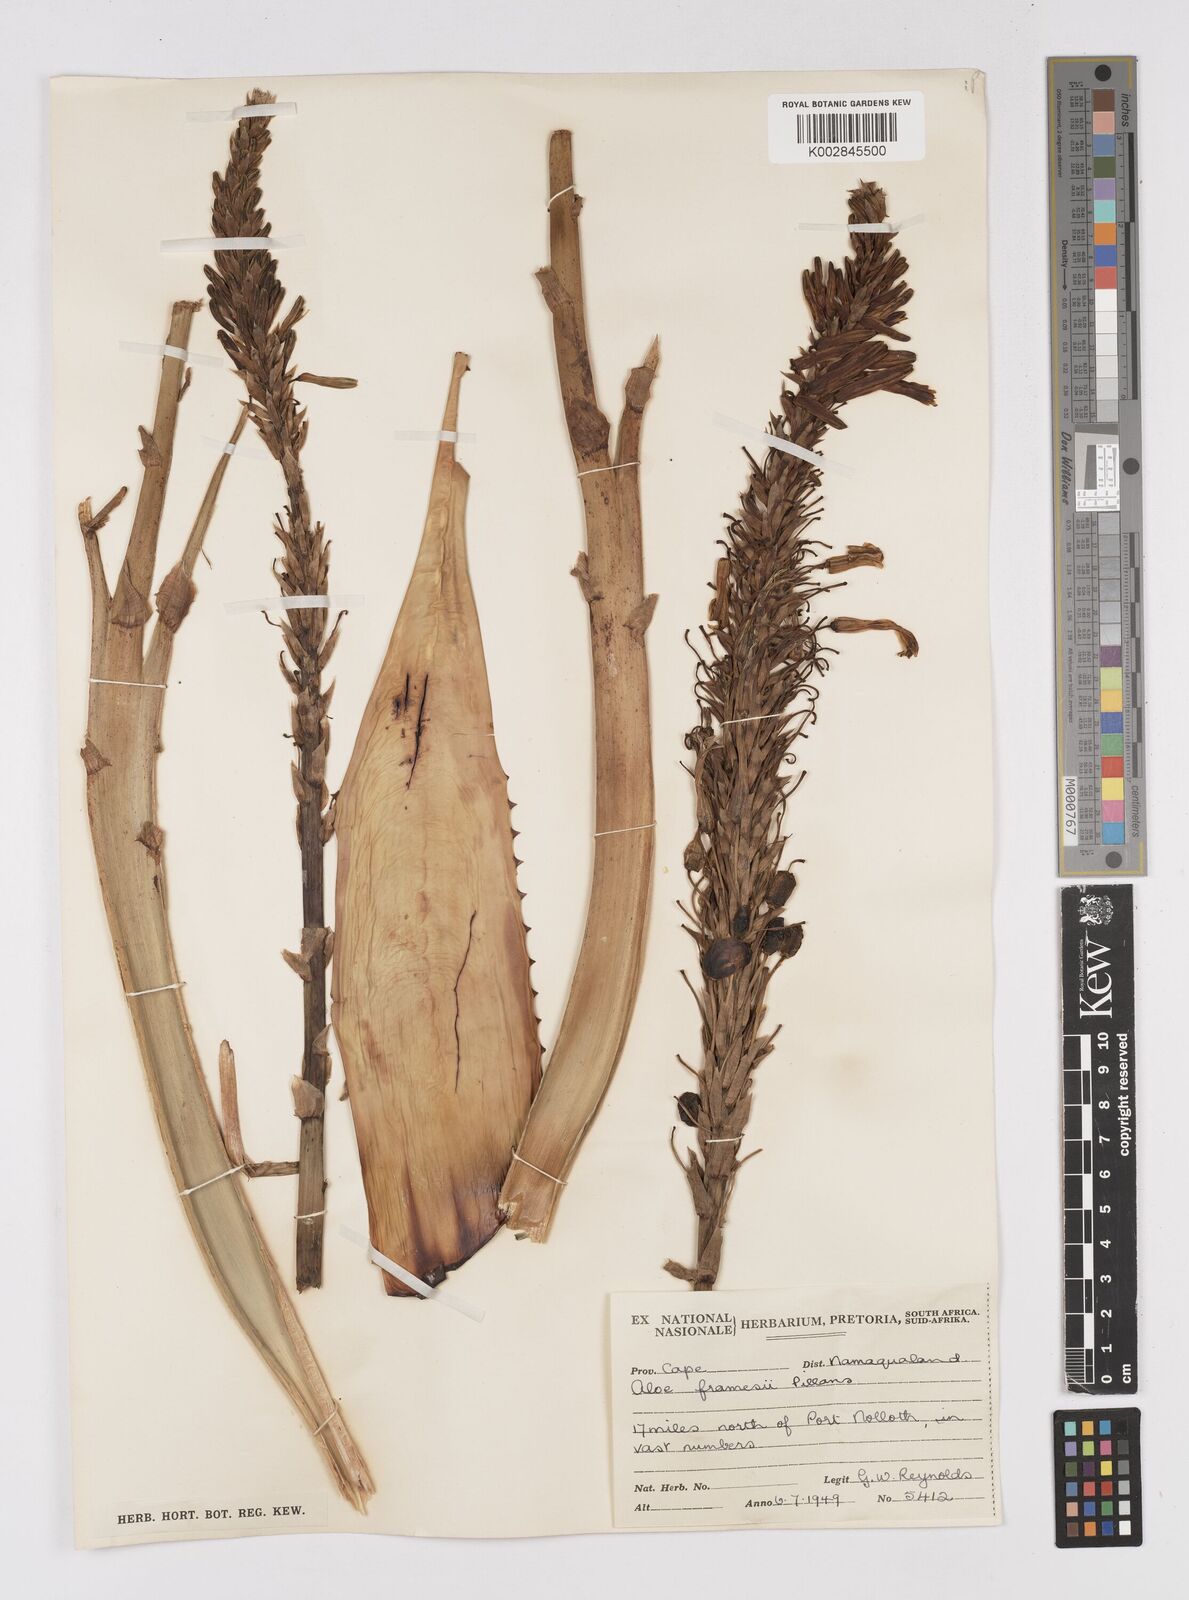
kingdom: Plantae
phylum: Tracheophyta
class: Liliopsida
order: Asparagales
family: Asphodelaceae
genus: Aloe
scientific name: Aloe microstigma
